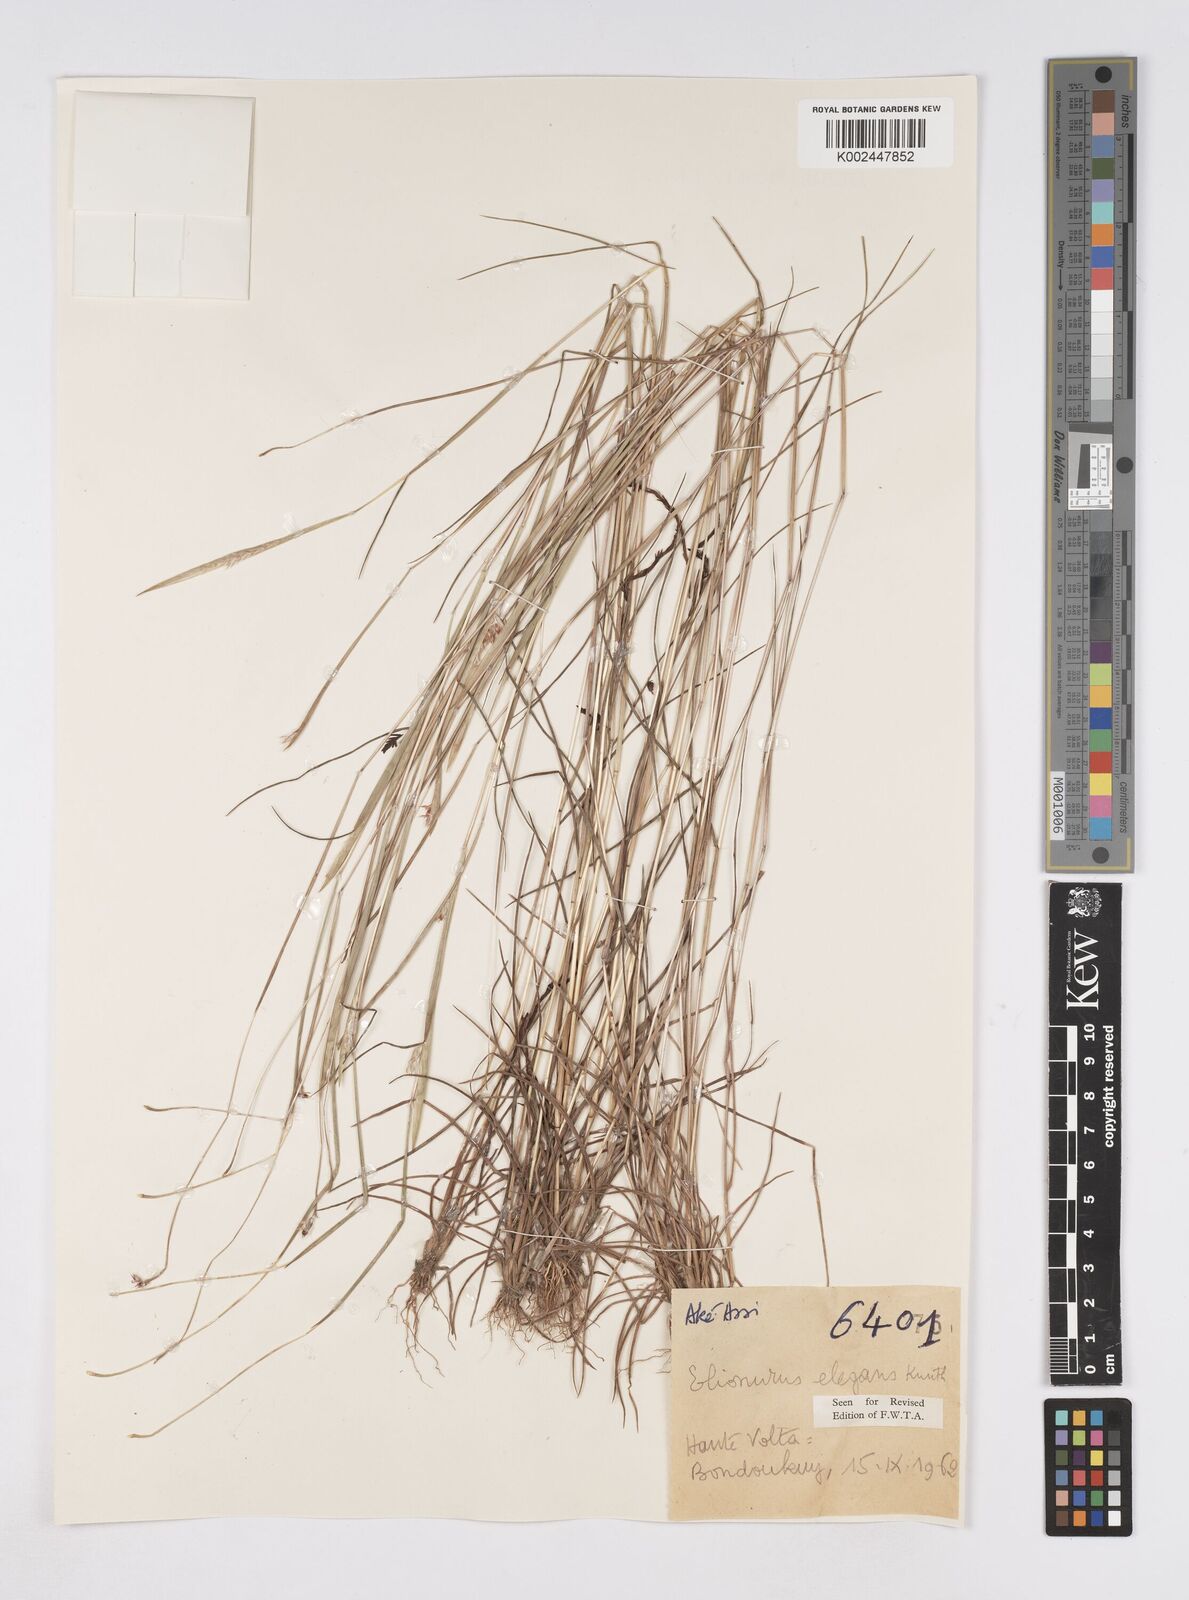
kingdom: Plantae
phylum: Tracheophyta
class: Liliopsida
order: Poales
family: Poaceae
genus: Elionurus
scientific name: Elionurus elegans
